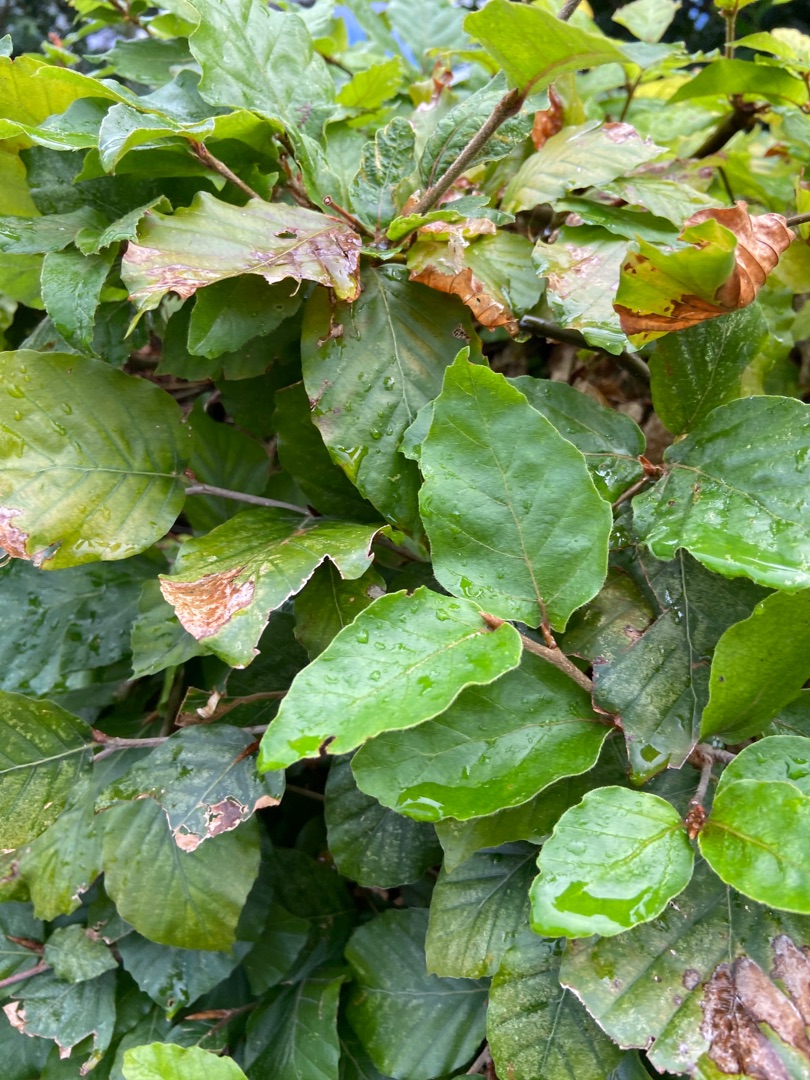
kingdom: Plantae
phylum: Tracheophyta
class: Magnoliopsida
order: Fagales
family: Fagaceae
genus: Fagus
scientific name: Fagus sylvatica
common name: Bøg
